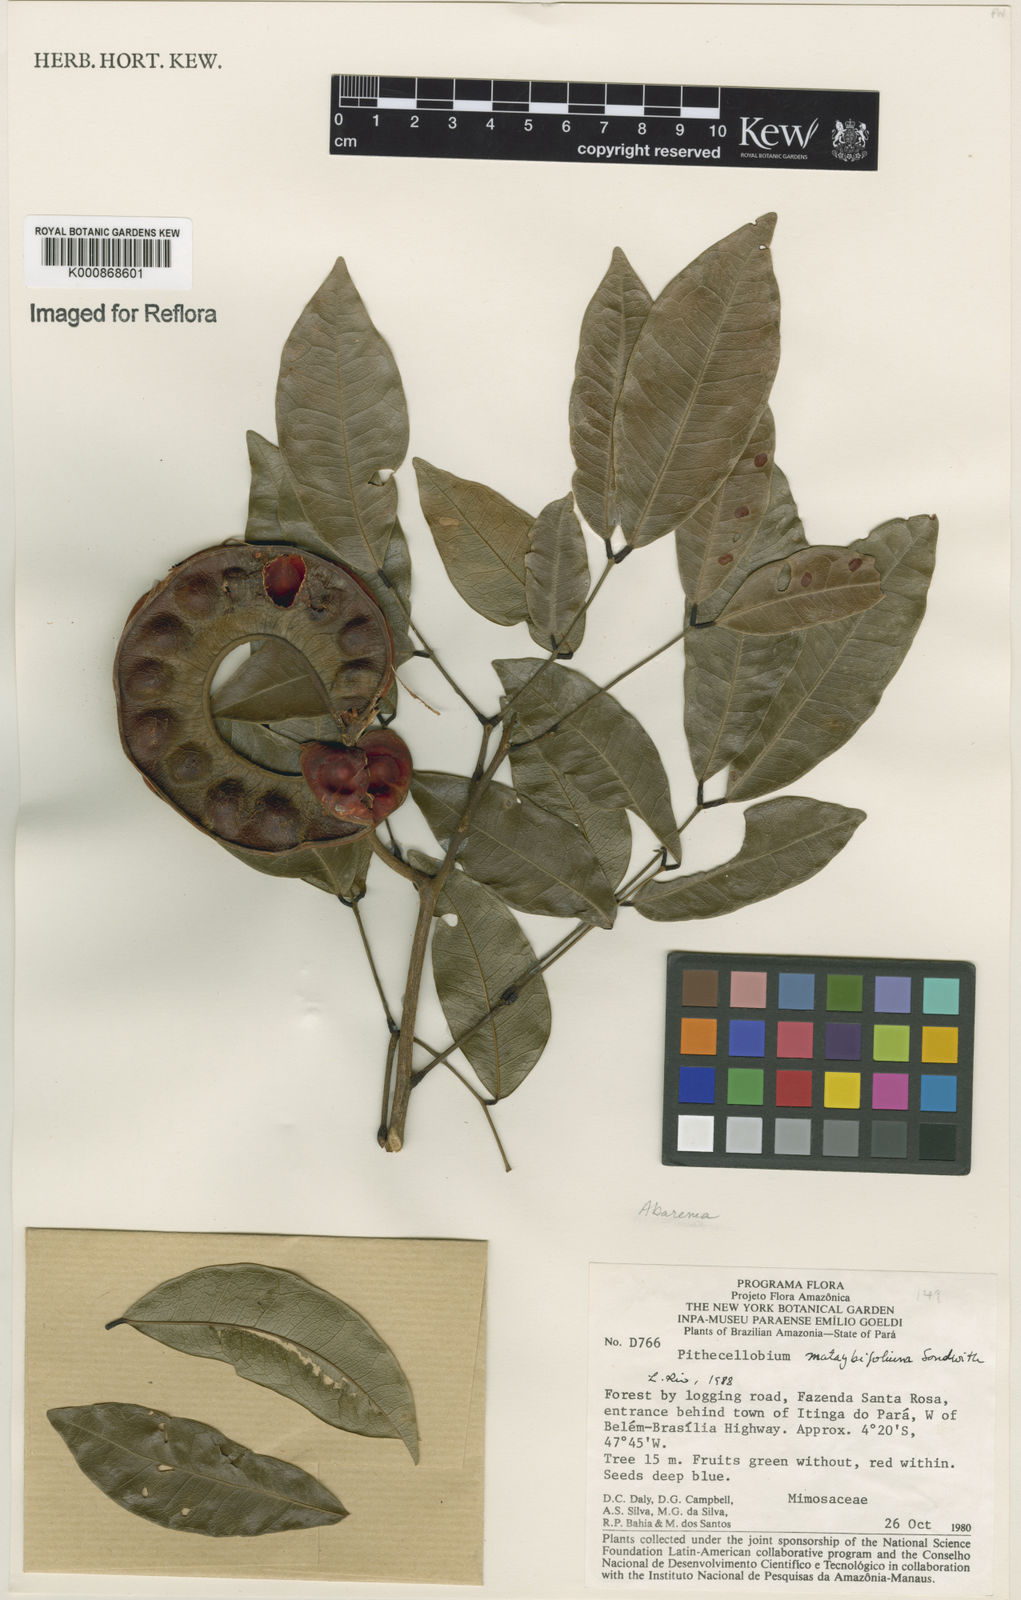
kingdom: Plantae
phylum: Tracheophyta
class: Magnoliopsida
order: Fabales
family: Fabaceae
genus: Jupunba
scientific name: Jupunba mataybifolia
